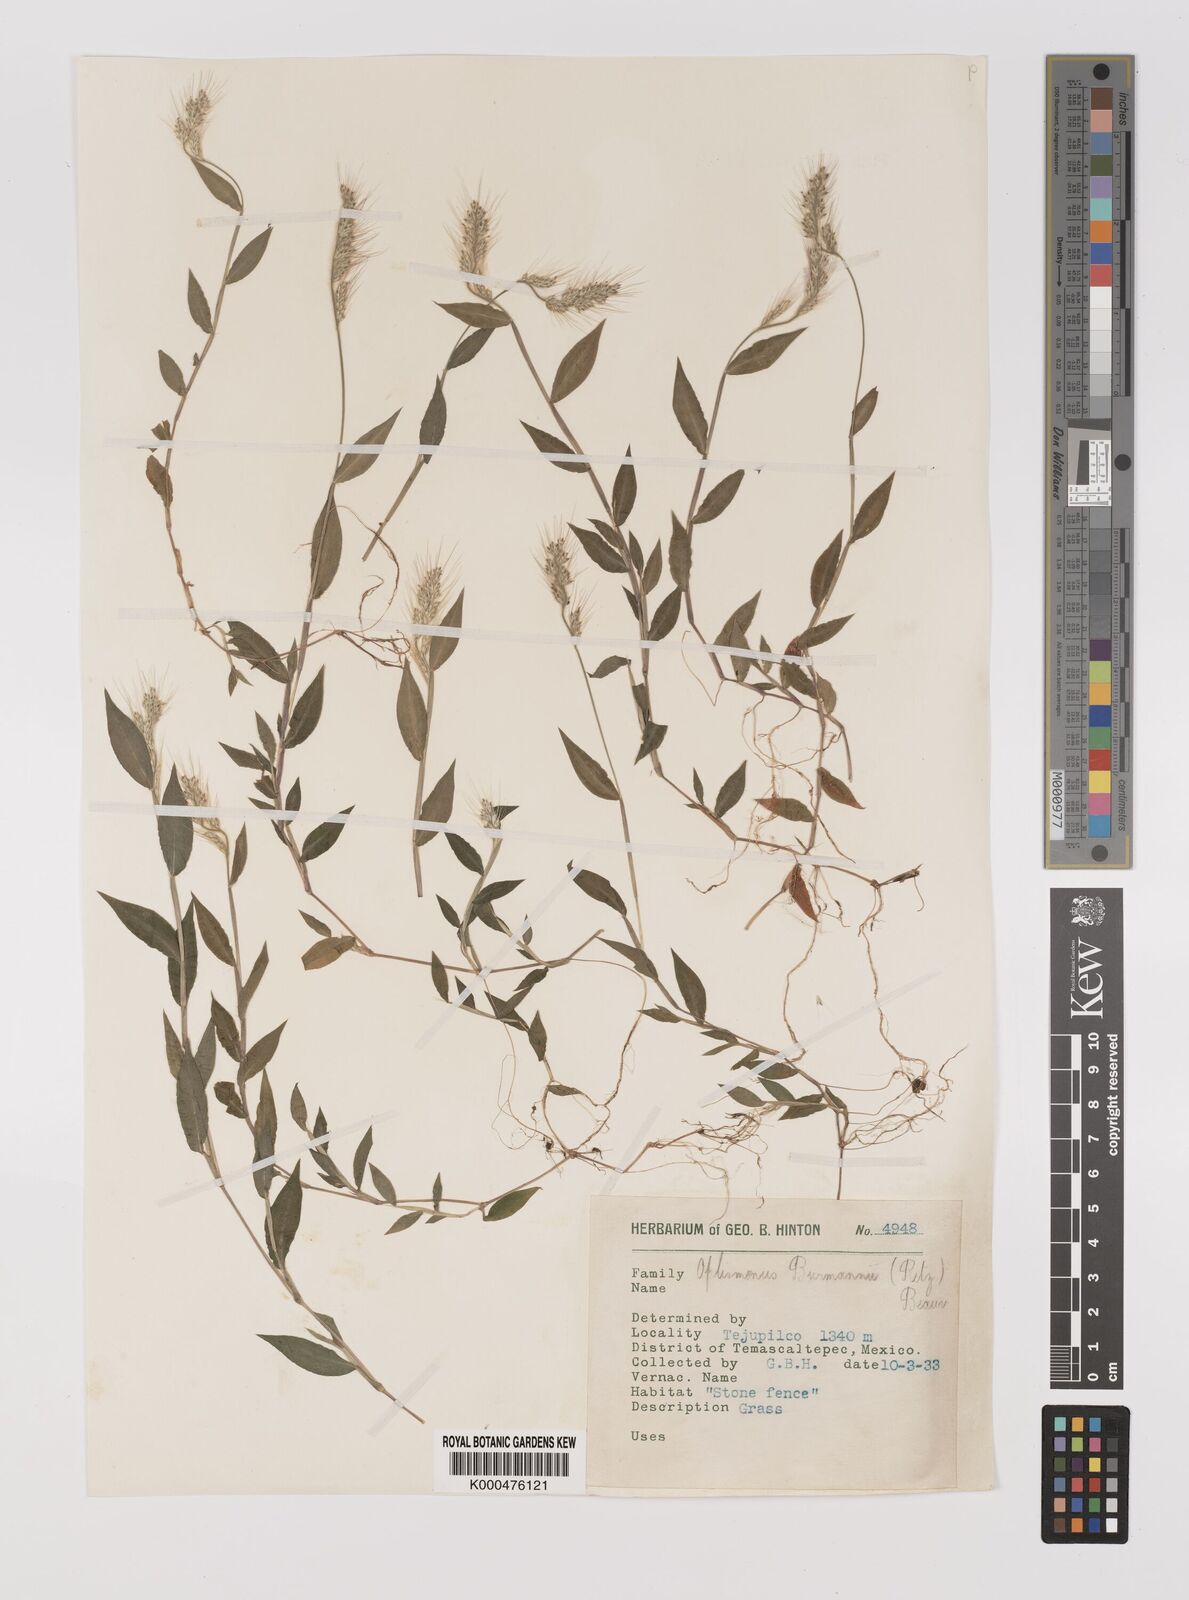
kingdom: Plantae
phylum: Tracheophyta
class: Liliopsida
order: Poales
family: Poaceae
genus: Oplismenus
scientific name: Oplismenus burmanni
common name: Burmann's basketgrass
